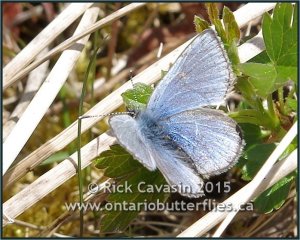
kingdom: Animalia
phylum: Arthropoda
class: Insecta
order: Lepidoptera
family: Lycaenidae
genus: Glaucopsyche
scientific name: Glaucopsyche lygdamus
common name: Silvery Blue
